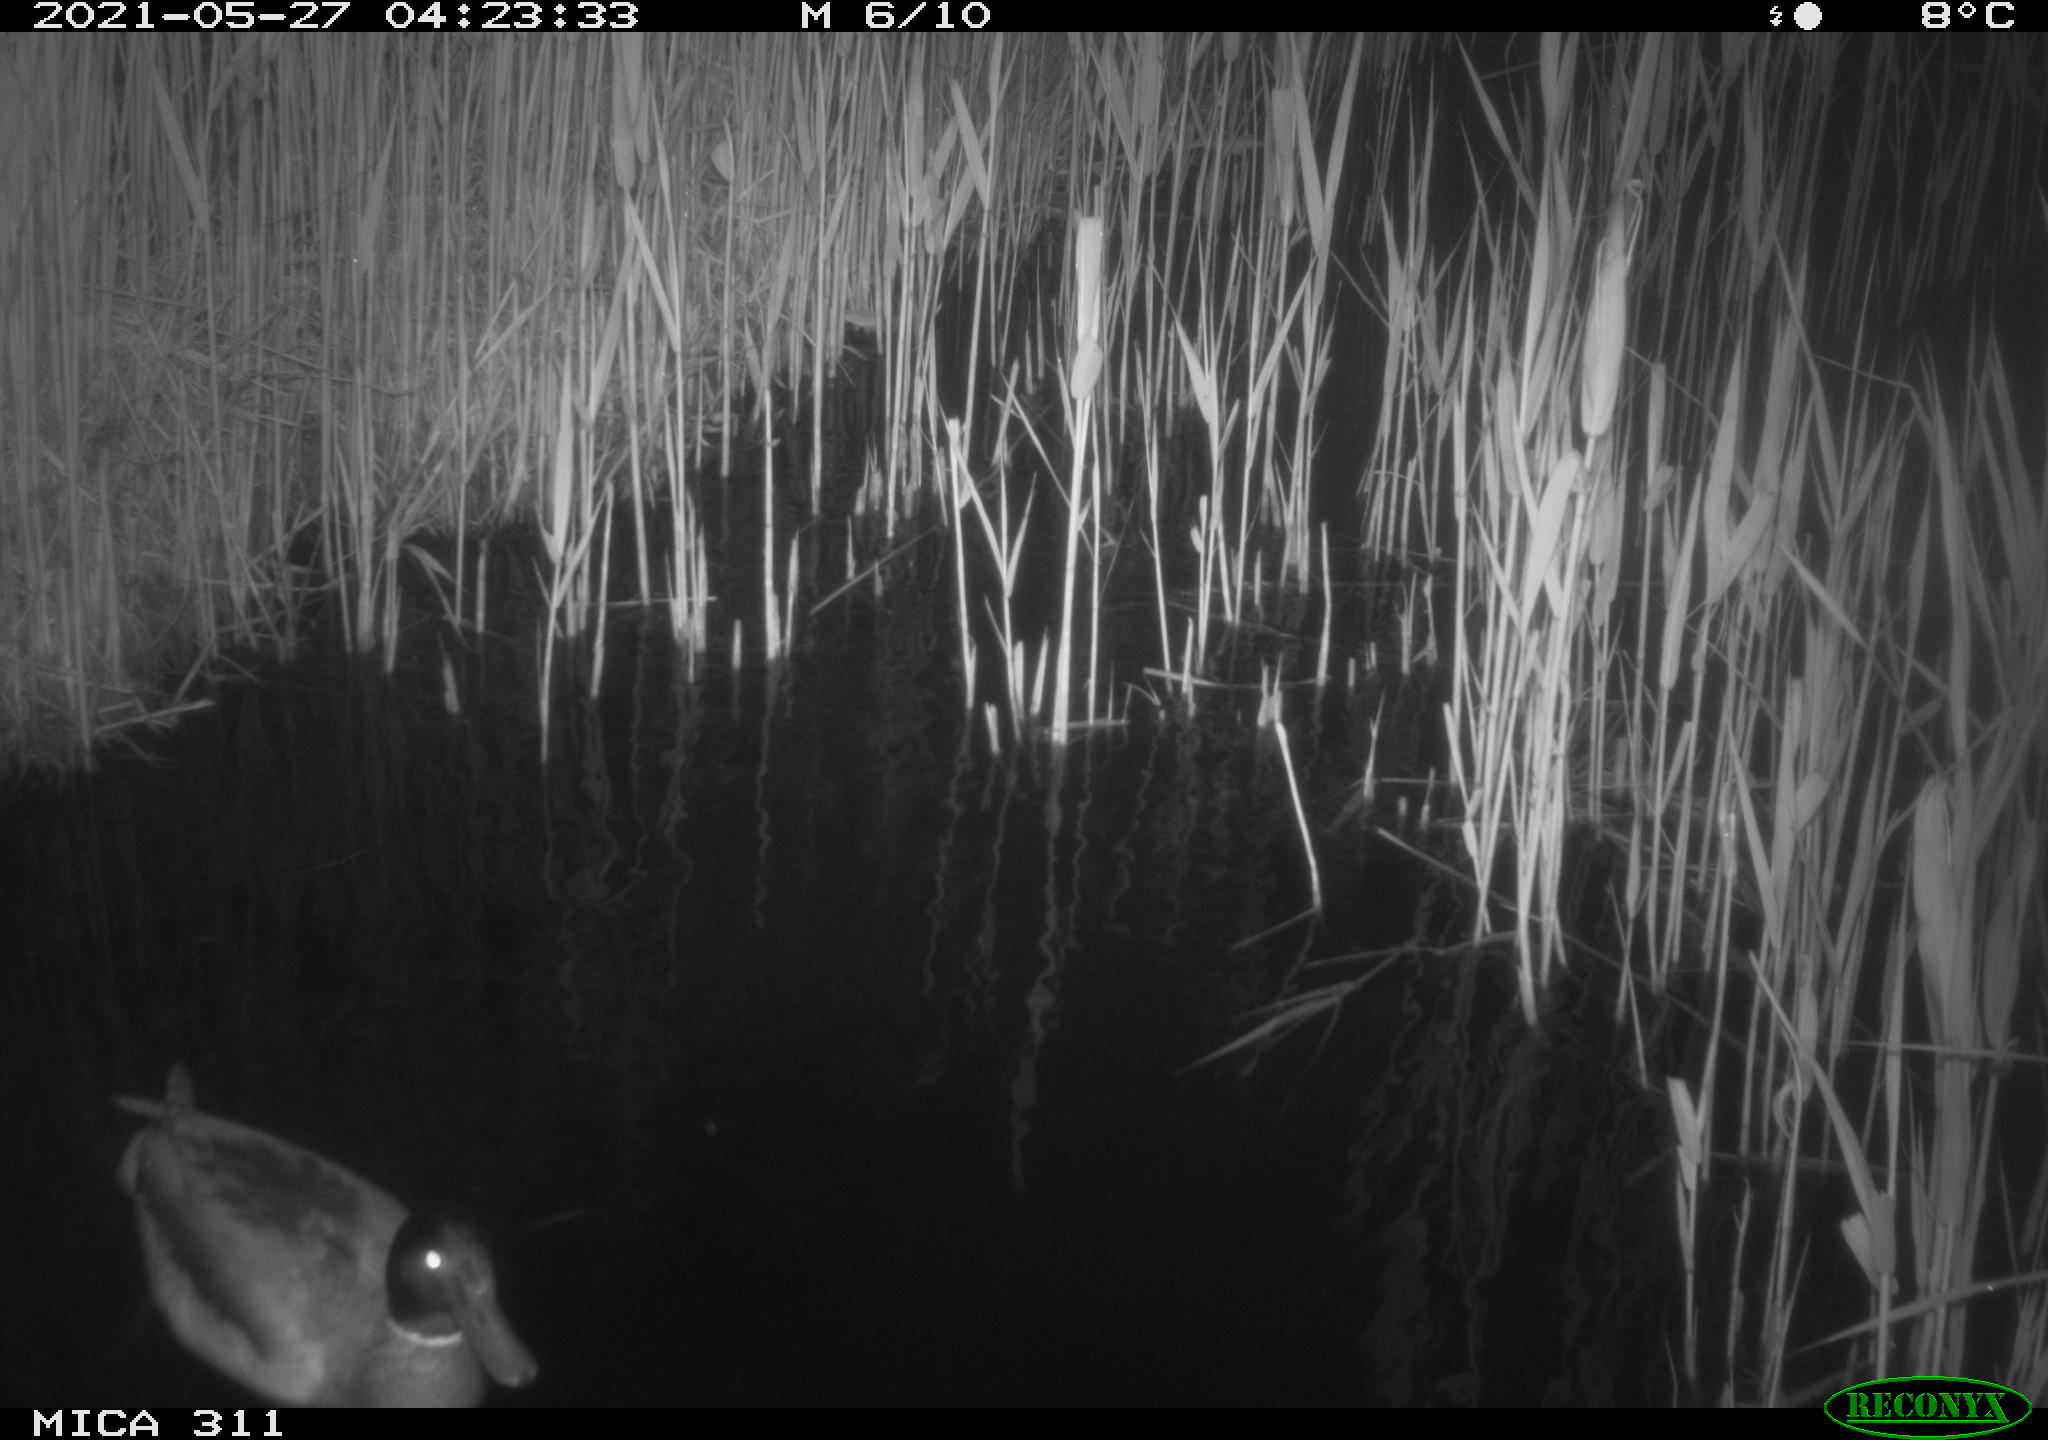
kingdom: Animalia
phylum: Chordata
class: Aves
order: Anseriformes
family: Anatidae
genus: Anas
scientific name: Anas
